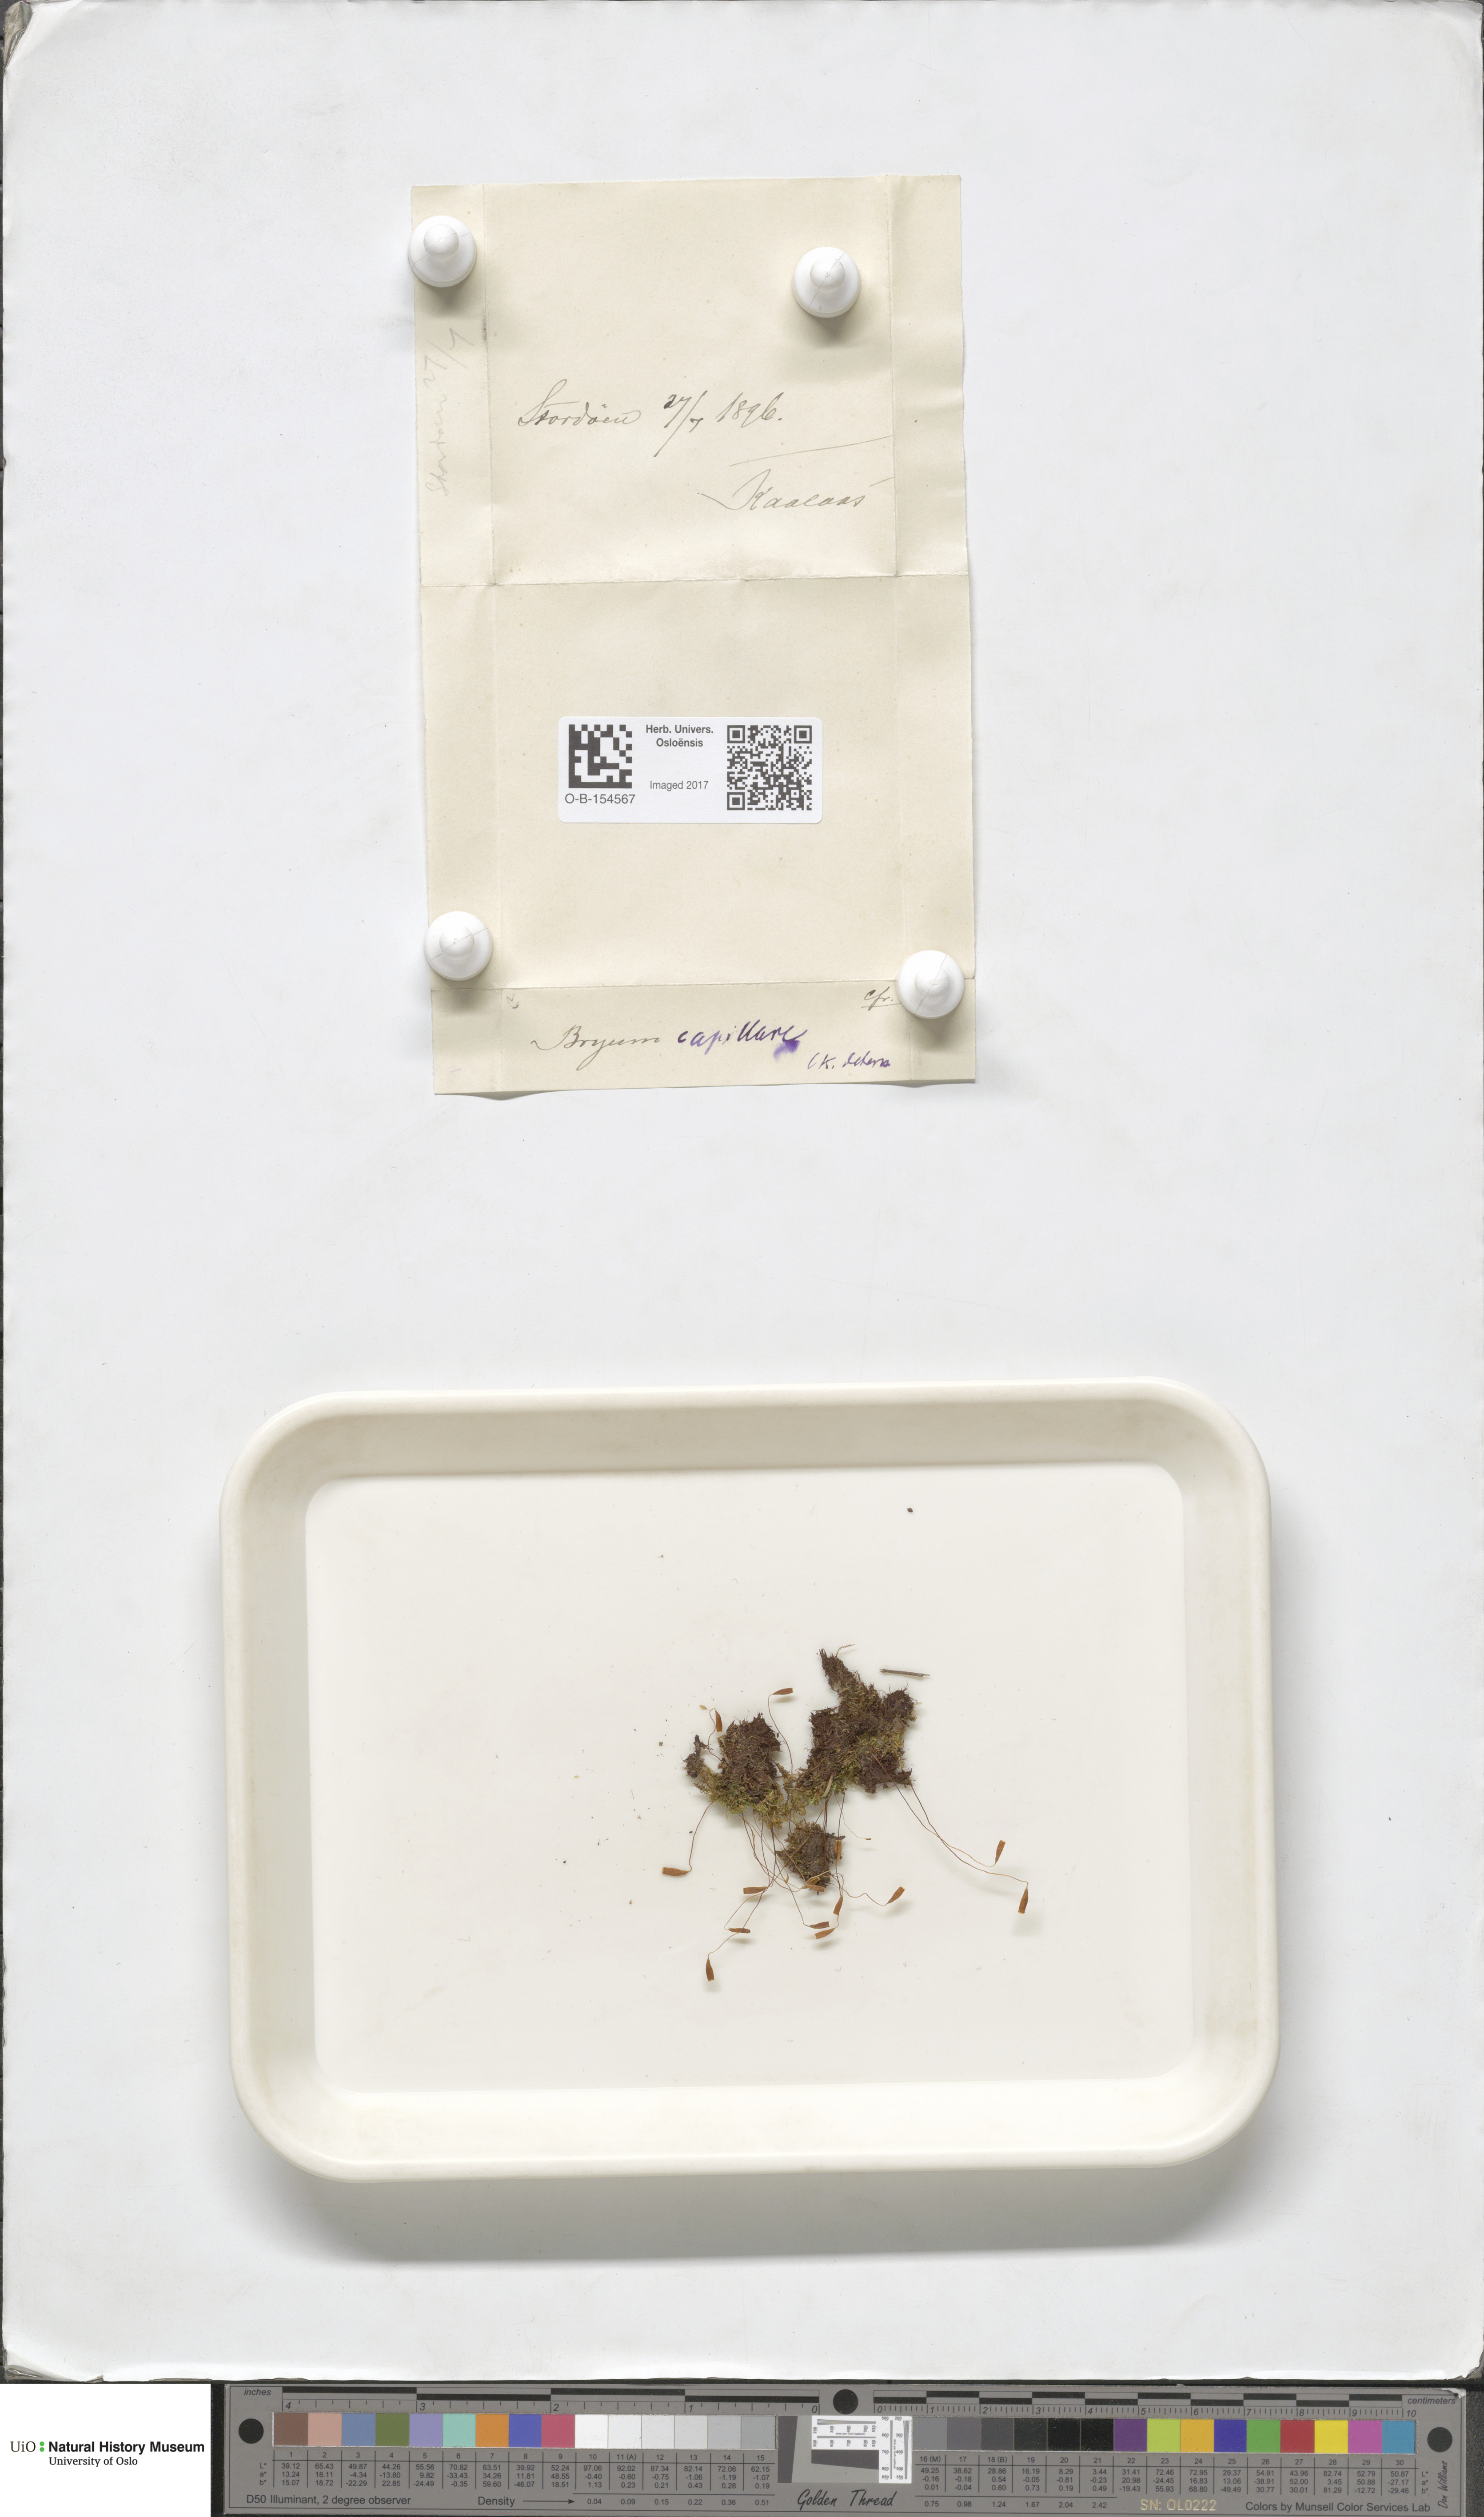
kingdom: Plantae
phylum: Bryophyta
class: Bryopsida
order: Bryales
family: Bryaceae
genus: Rosulabryum
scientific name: Rosulabryum capillare
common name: Capillary thread-moss
